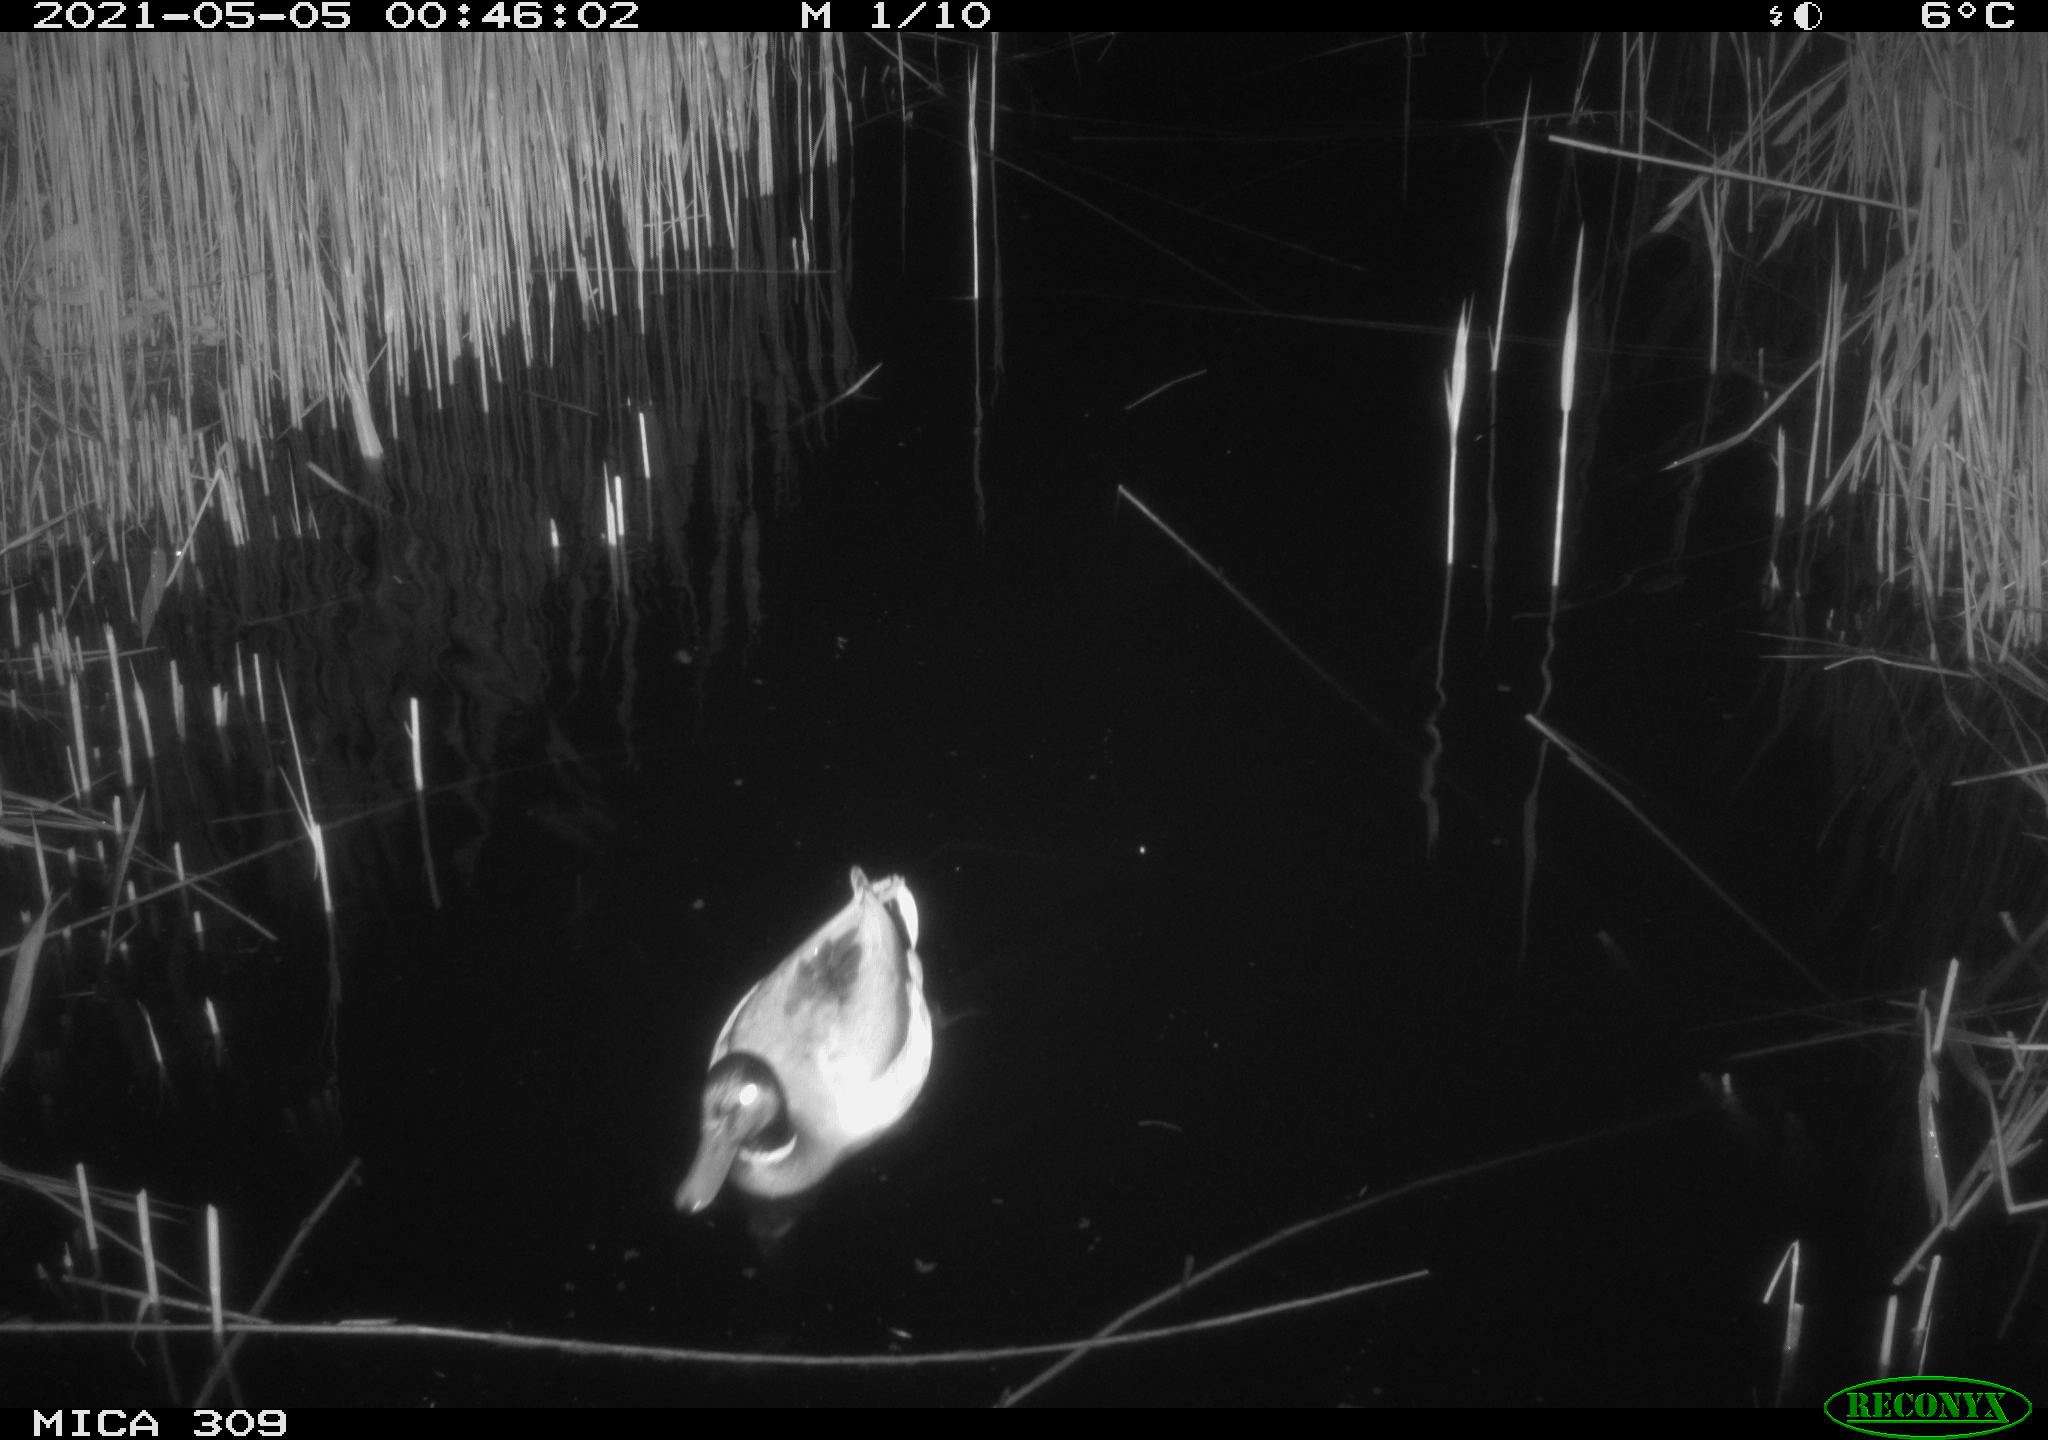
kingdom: Animalia
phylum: Chordata
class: Aves
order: Anseriformes
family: Anatidae
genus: Anas
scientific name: Anas platyrhynchos
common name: Mallard
